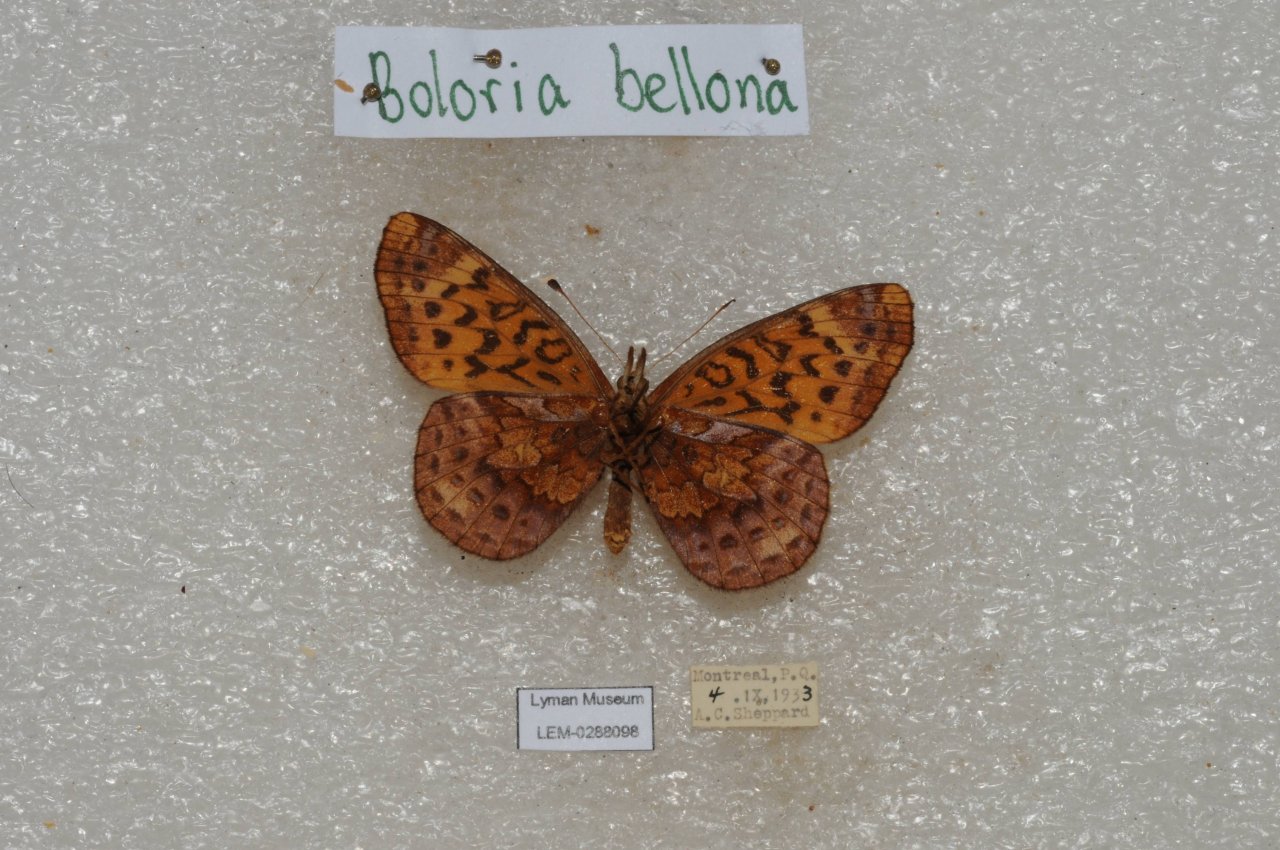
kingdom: Animalia
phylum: Arthropoda
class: Insecta
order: Lepidoptera
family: Nymphalidae
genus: Clossiana
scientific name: Clossiana toddi
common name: Meadow Fritillary
